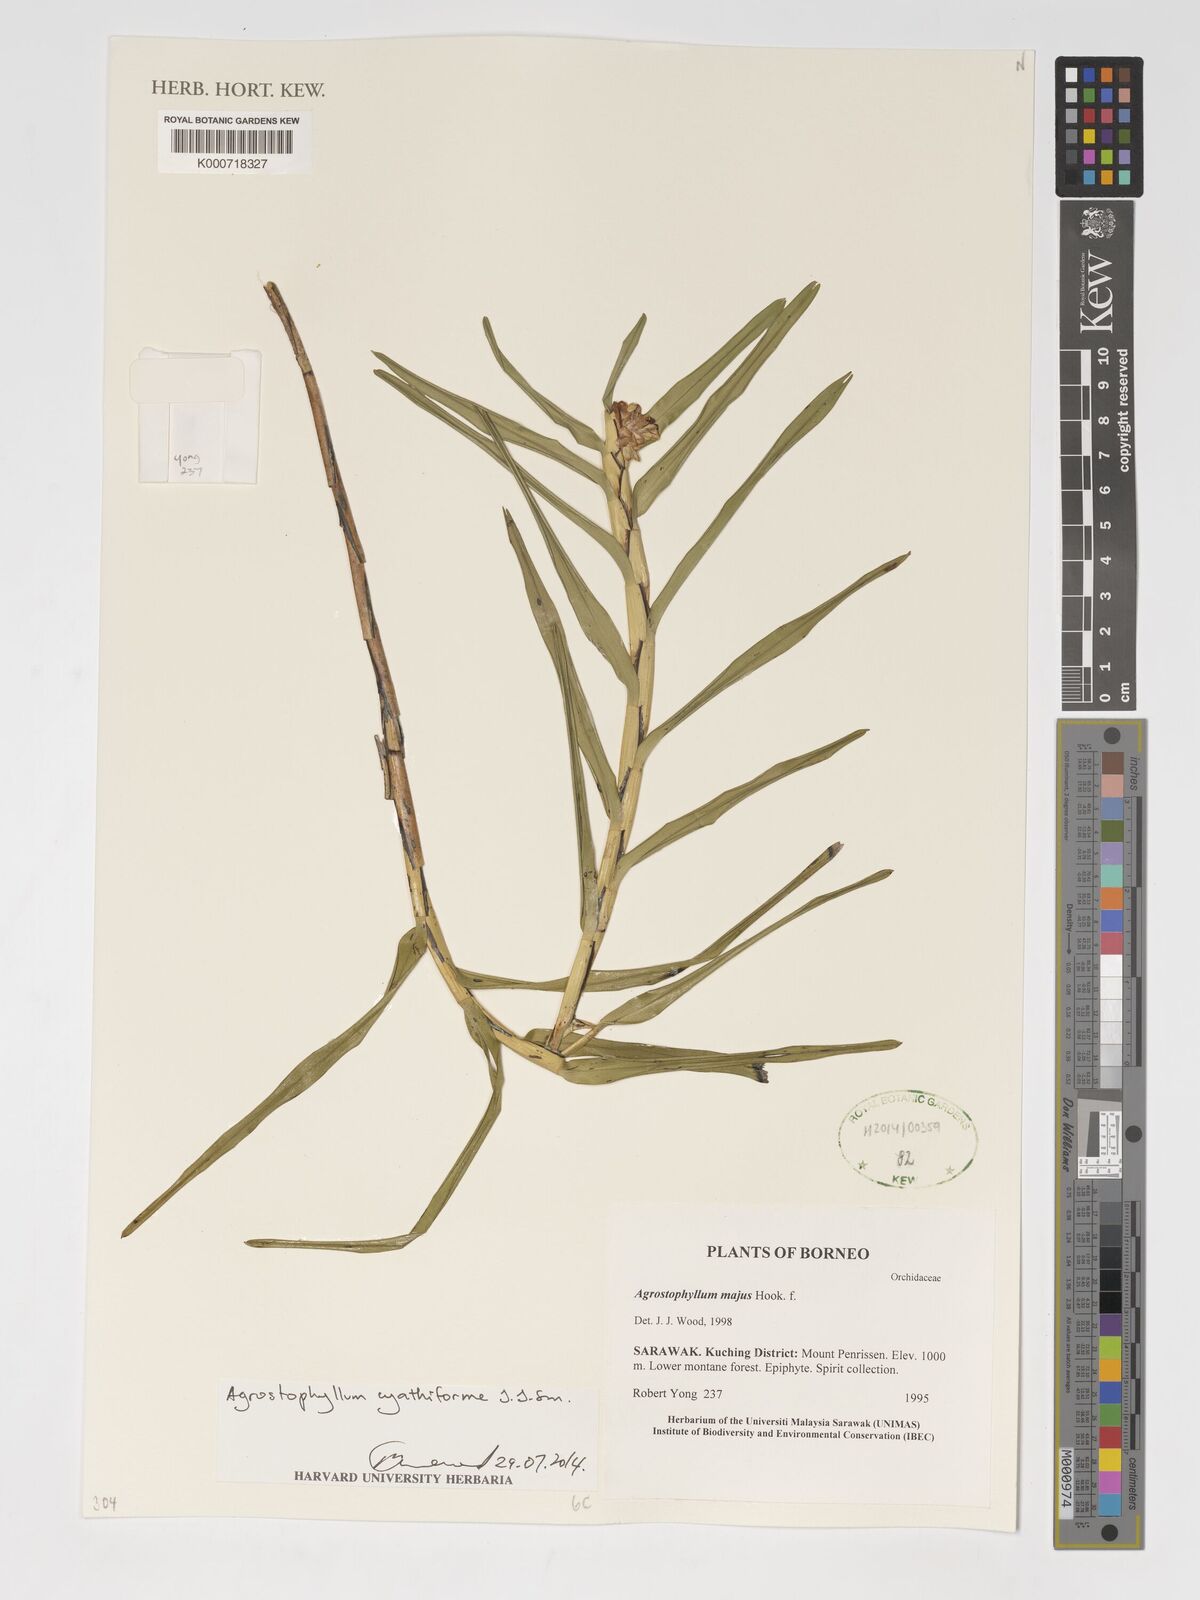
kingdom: Plantae
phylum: Tracheophyta
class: Liliopsida
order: Asparagales
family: Orchidaceae
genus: Agrostophyllum
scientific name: Agrostophyllum cyathiforme
